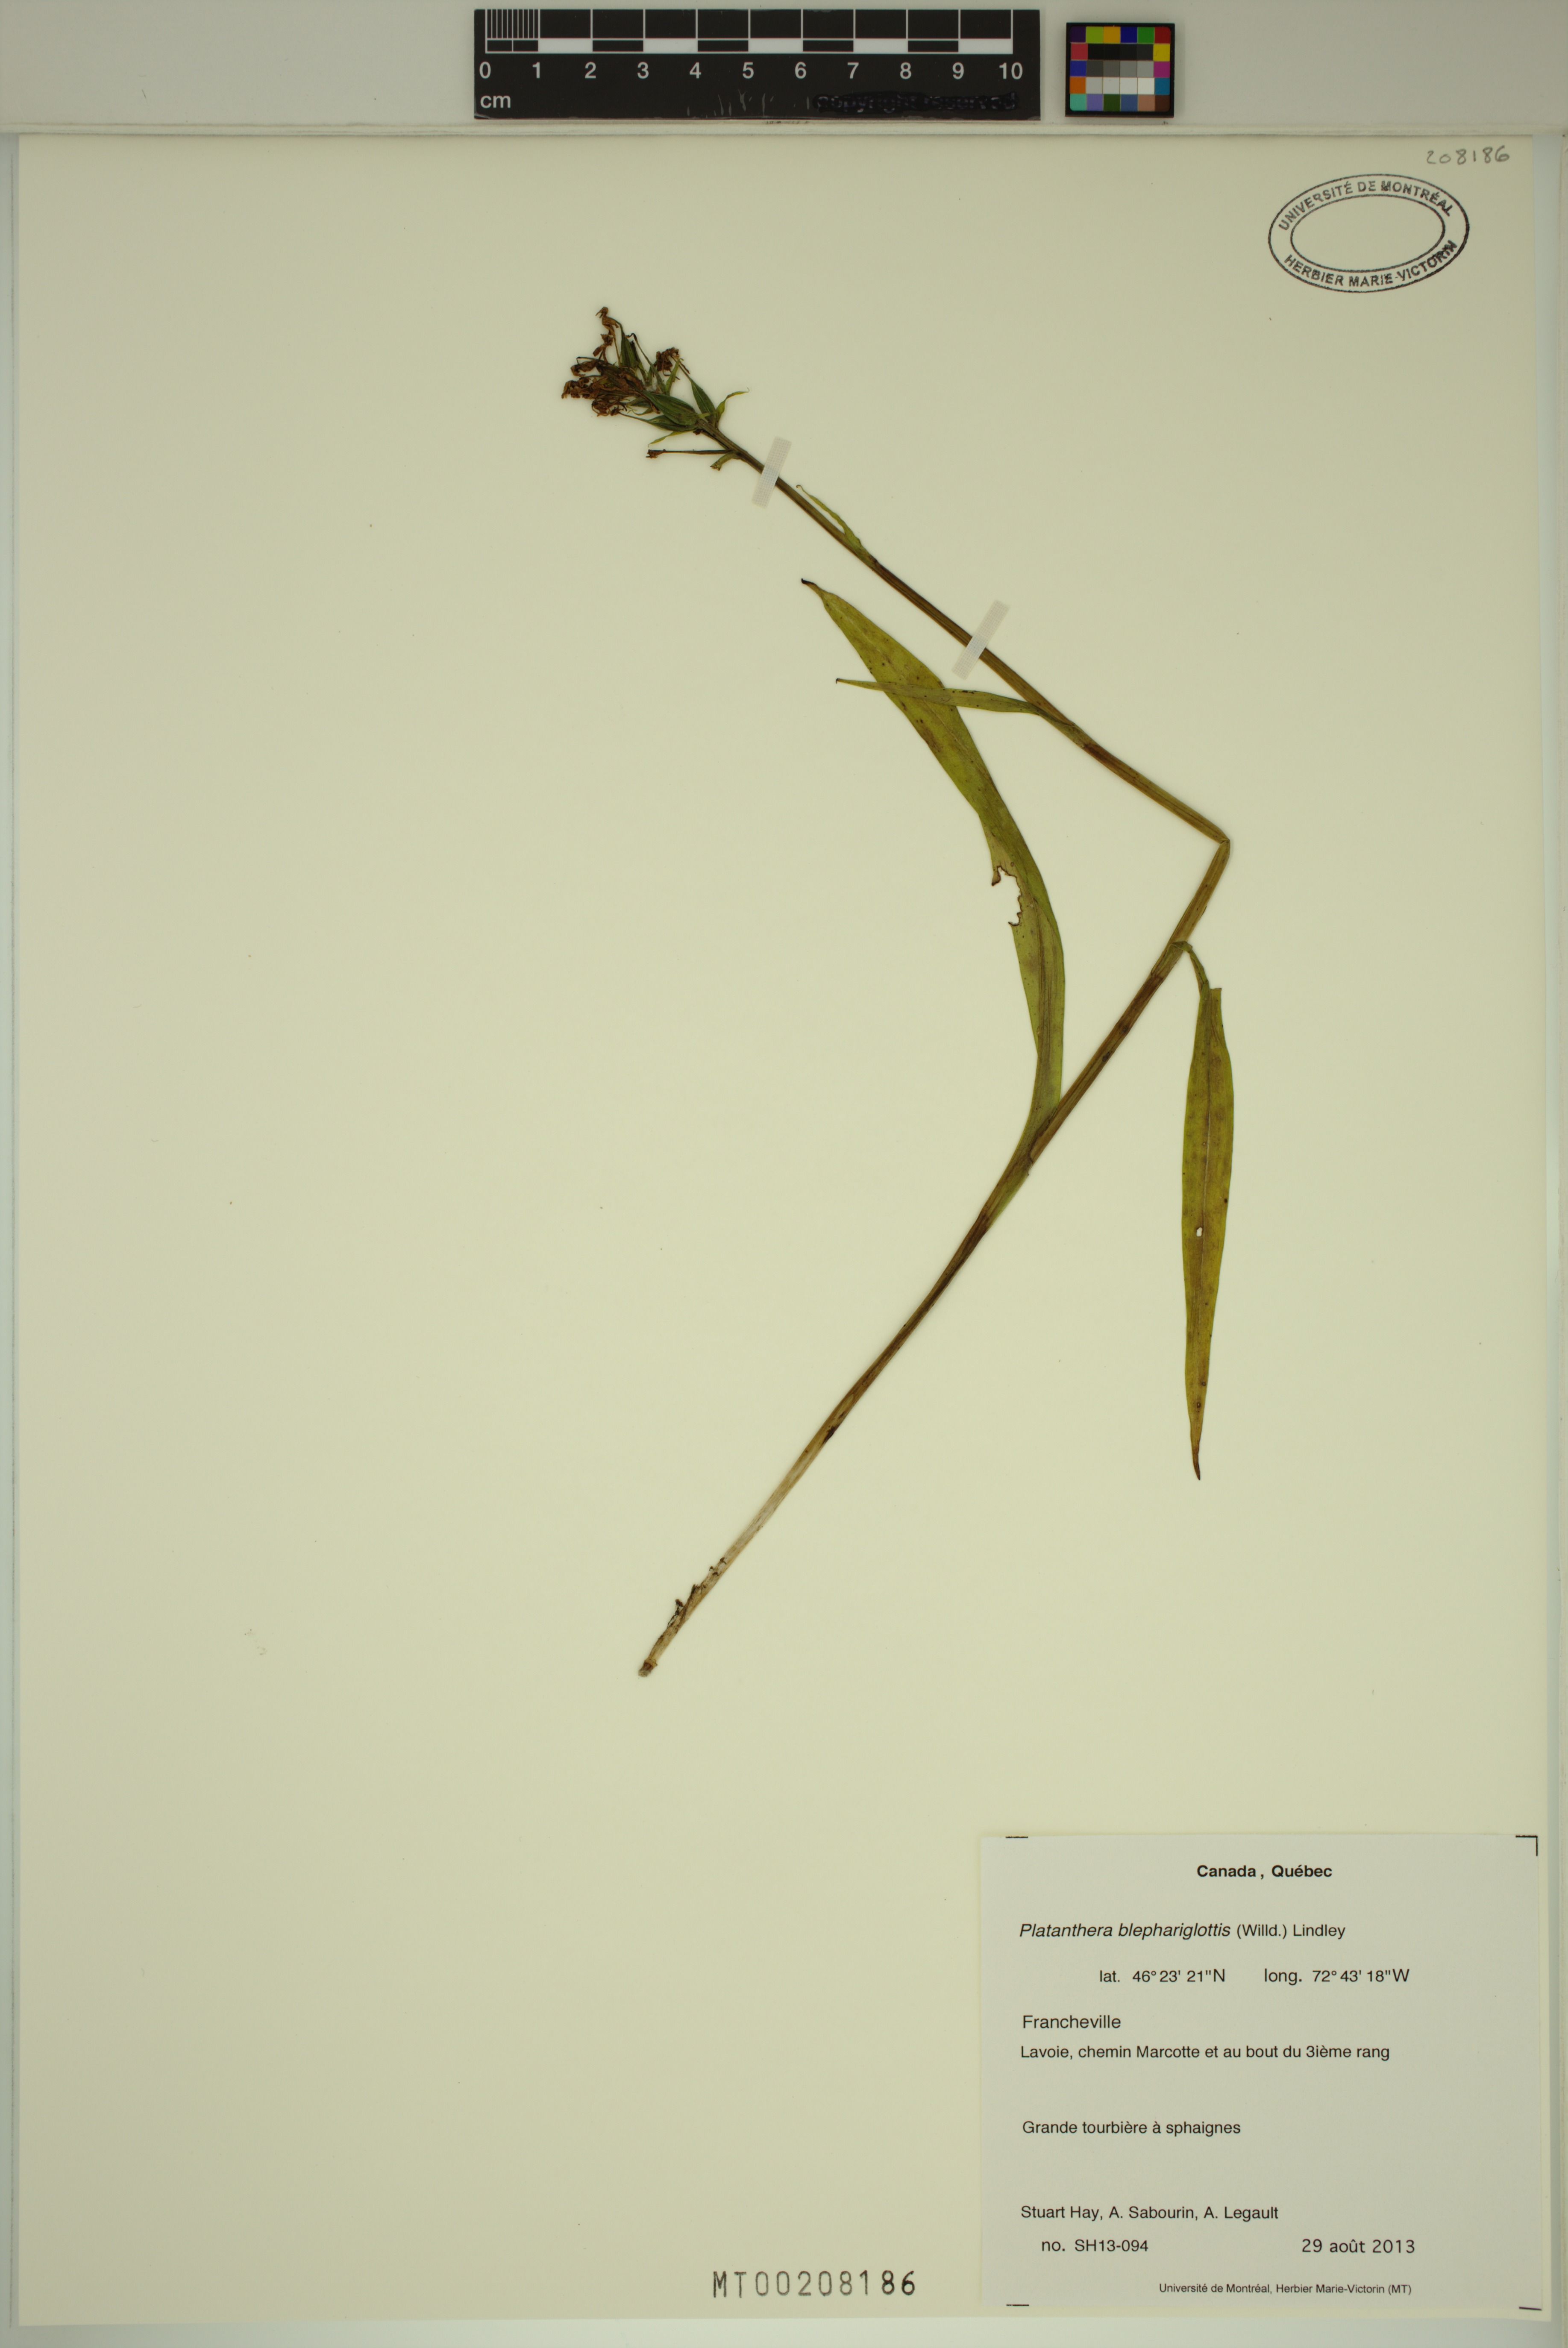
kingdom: Plantae
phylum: Tracheophyta
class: Liliopsida
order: Asparagales
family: Orchidaceae
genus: Platanthera
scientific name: Platanthera blephariglottis
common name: White fringed orchid
